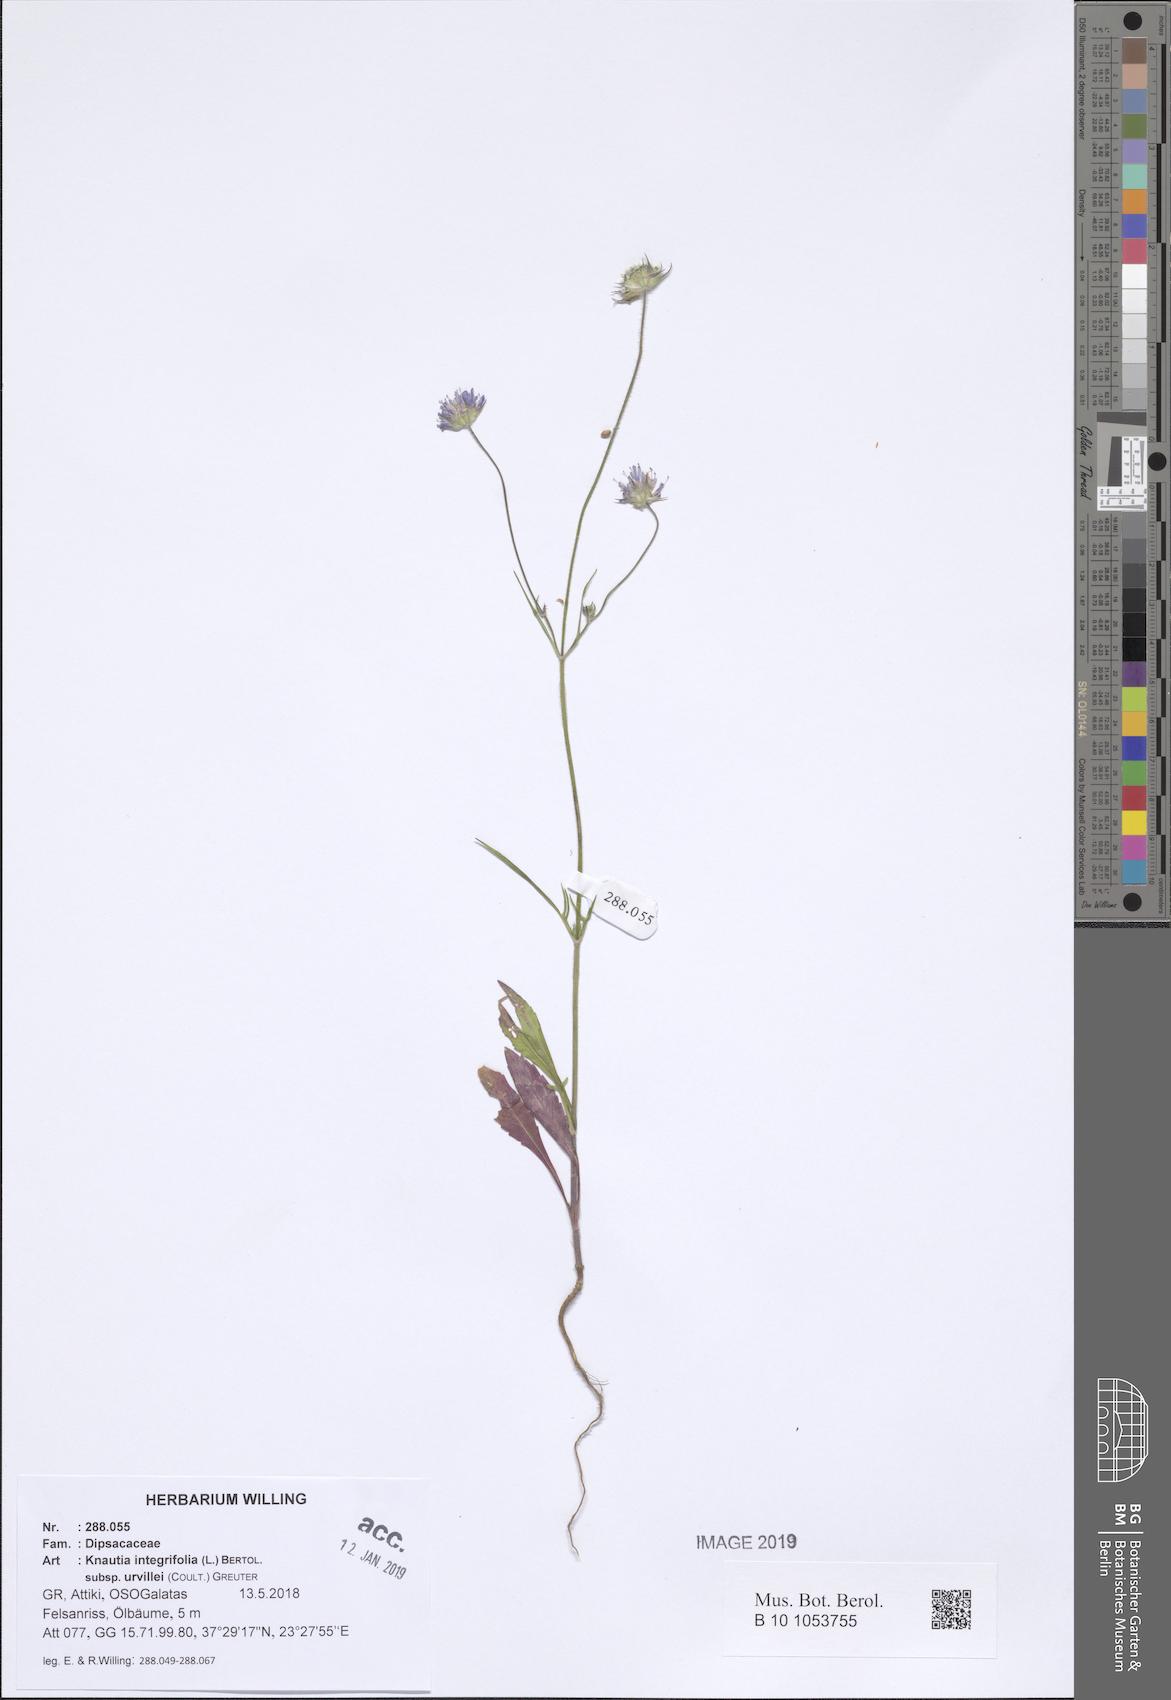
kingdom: Plantae
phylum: Tracheophyta
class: Magnoliopsida
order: Dipsacales
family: Caprifoliaceae
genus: Knautia
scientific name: Knautia integrifolia
